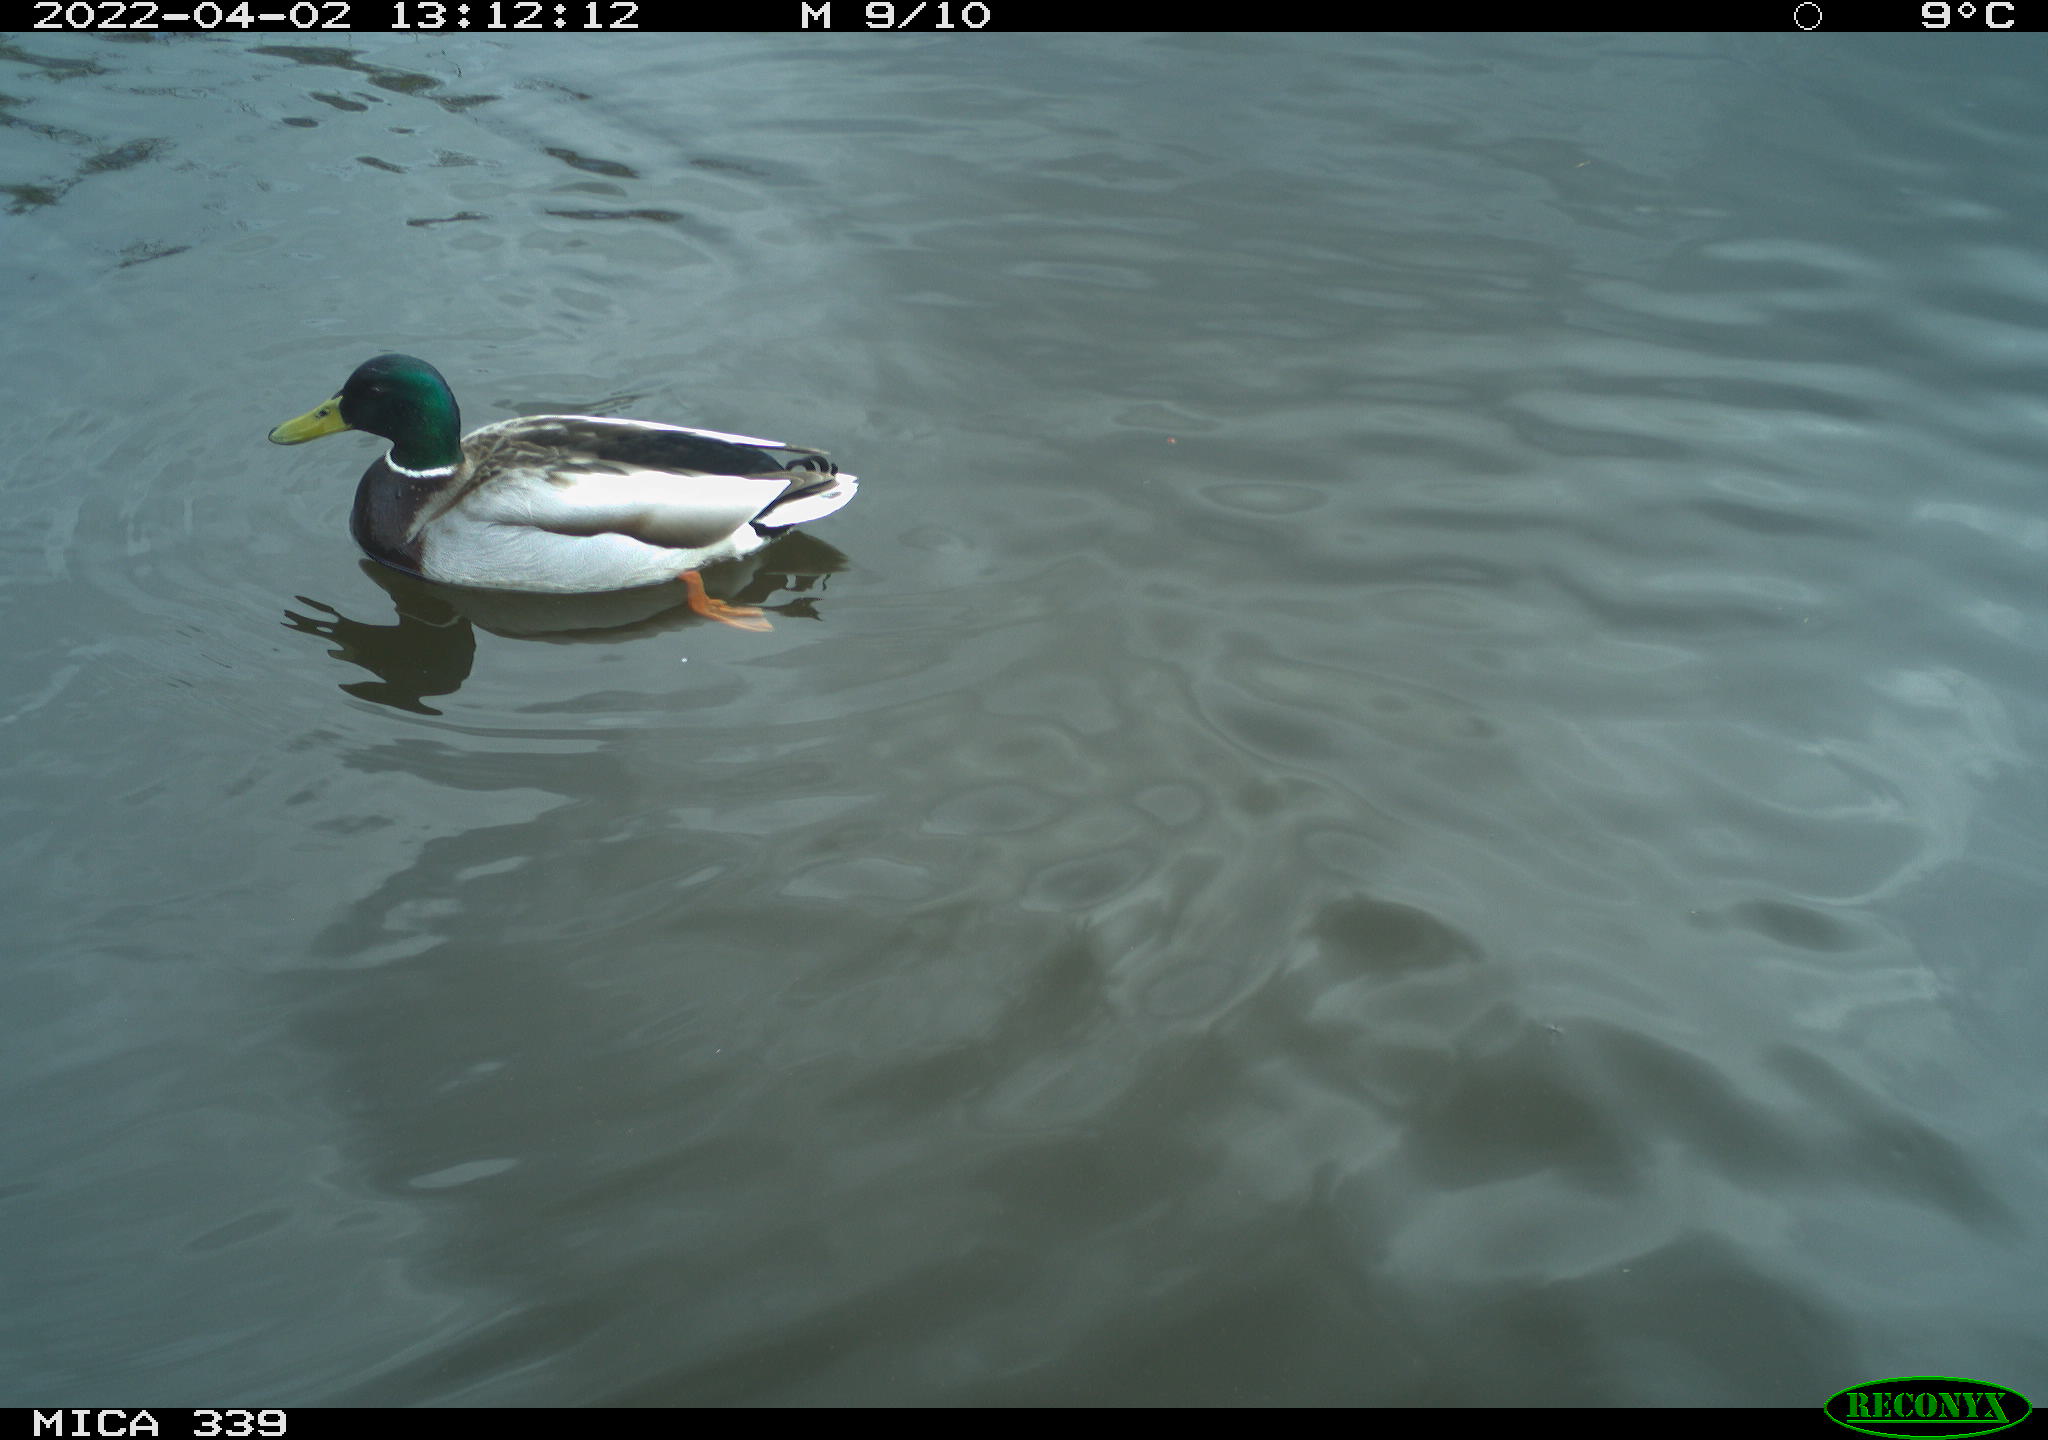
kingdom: Animalia
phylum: Chordata
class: Aves
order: Anseriformes
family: Anatidae
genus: Anas
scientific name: Anas platyrhynchos
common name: Mallard
